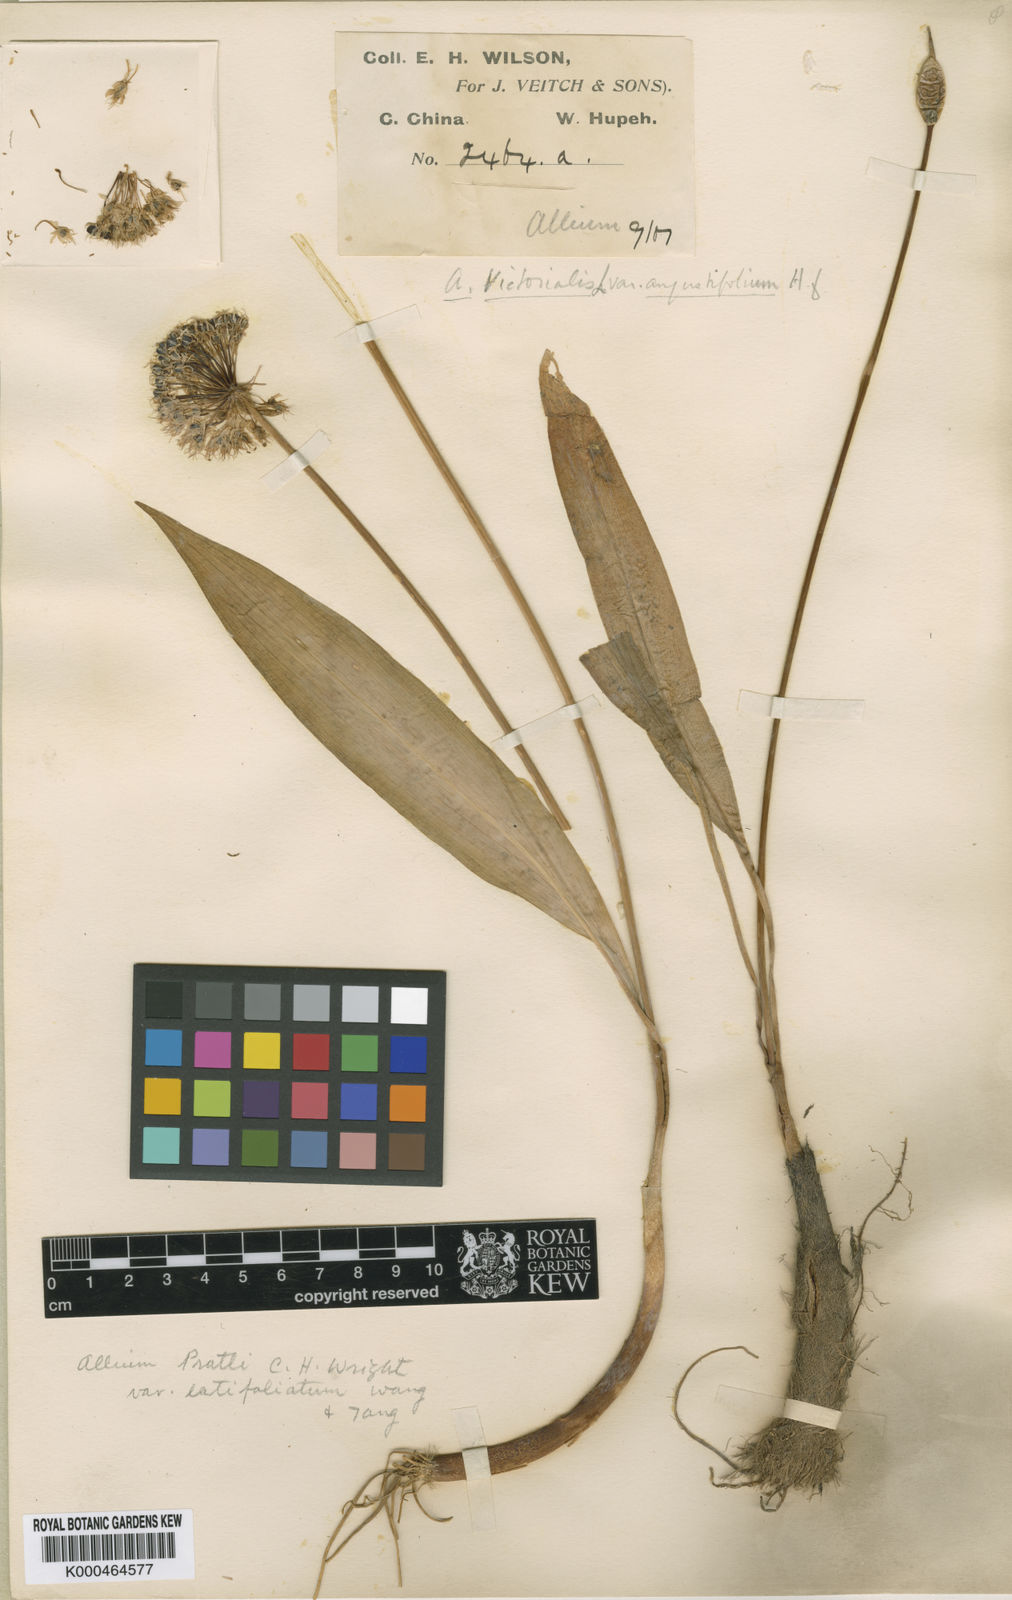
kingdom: Plantae
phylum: Tracheophyta
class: Liliopsida
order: Asparagales
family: Amaryllidaceae
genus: Allium
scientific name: Allium prattii
